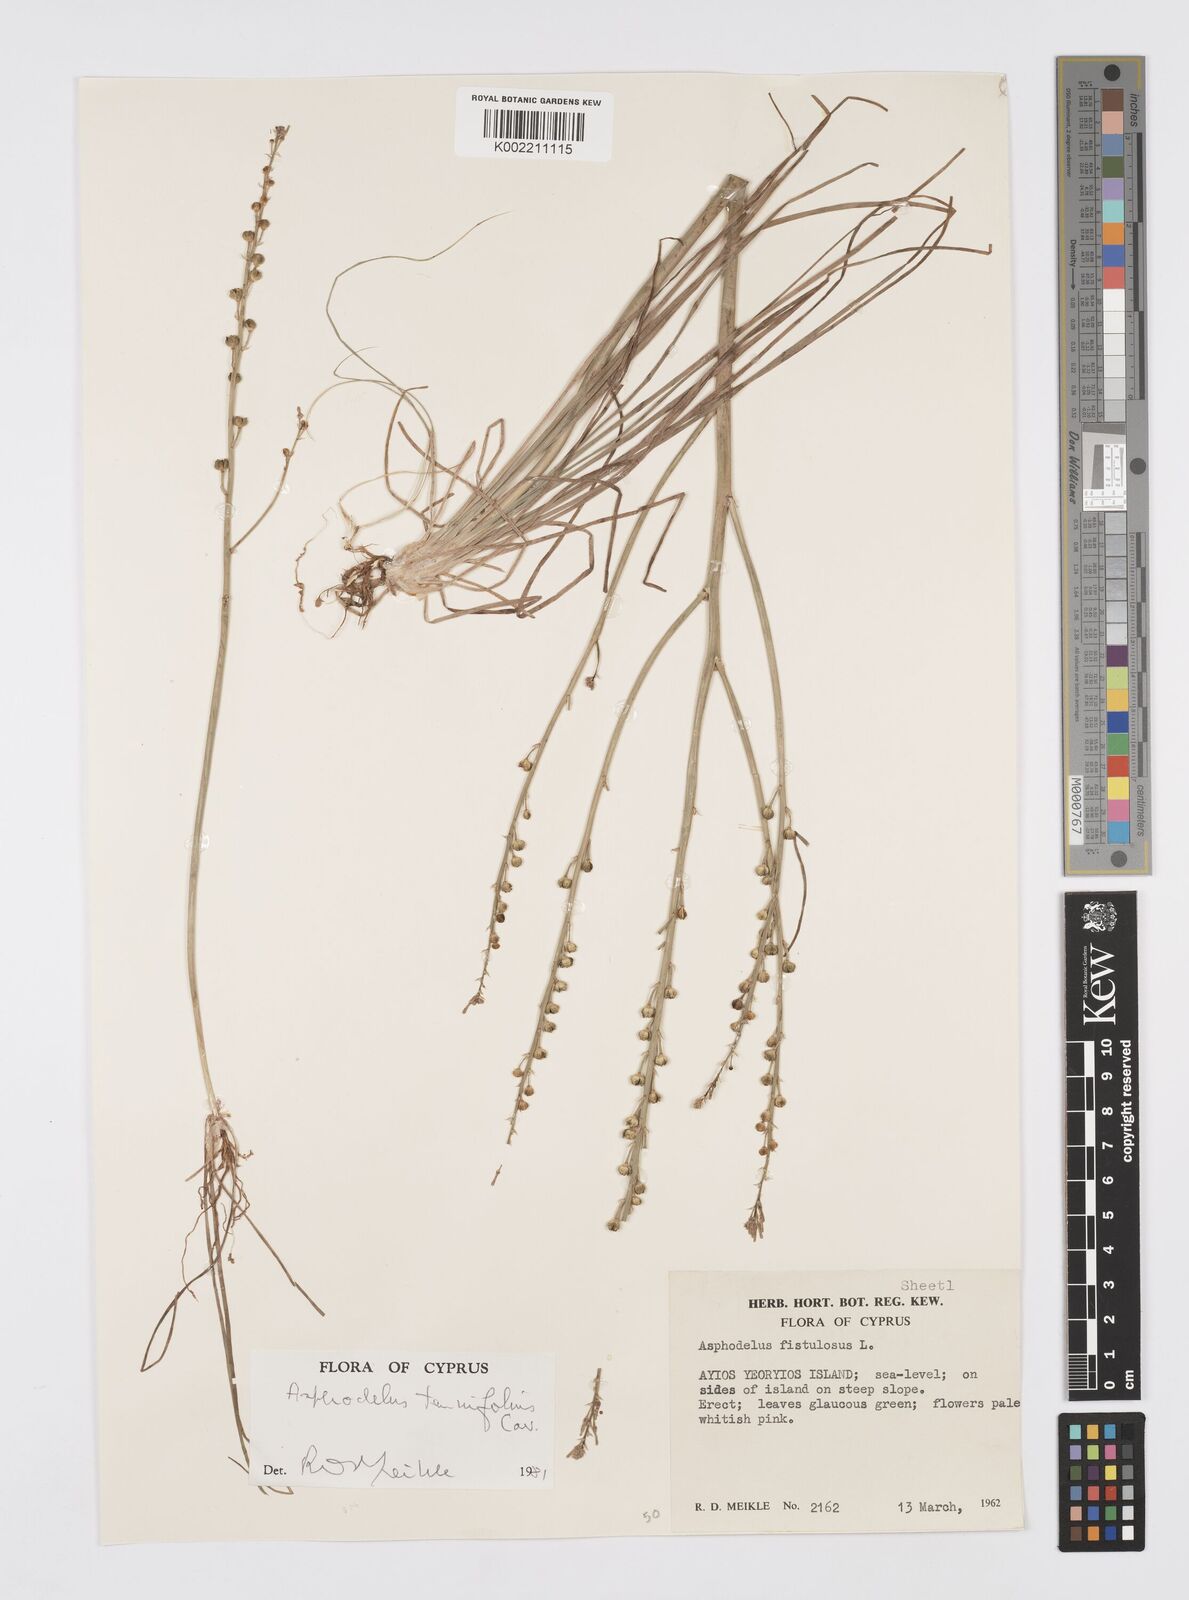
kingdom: Plantae
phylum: Tracheophyta
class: Liliopsida
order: Asparagales
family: Asphodelaceae
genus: Asphodelus
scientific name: Asphodelus tenuifolius
